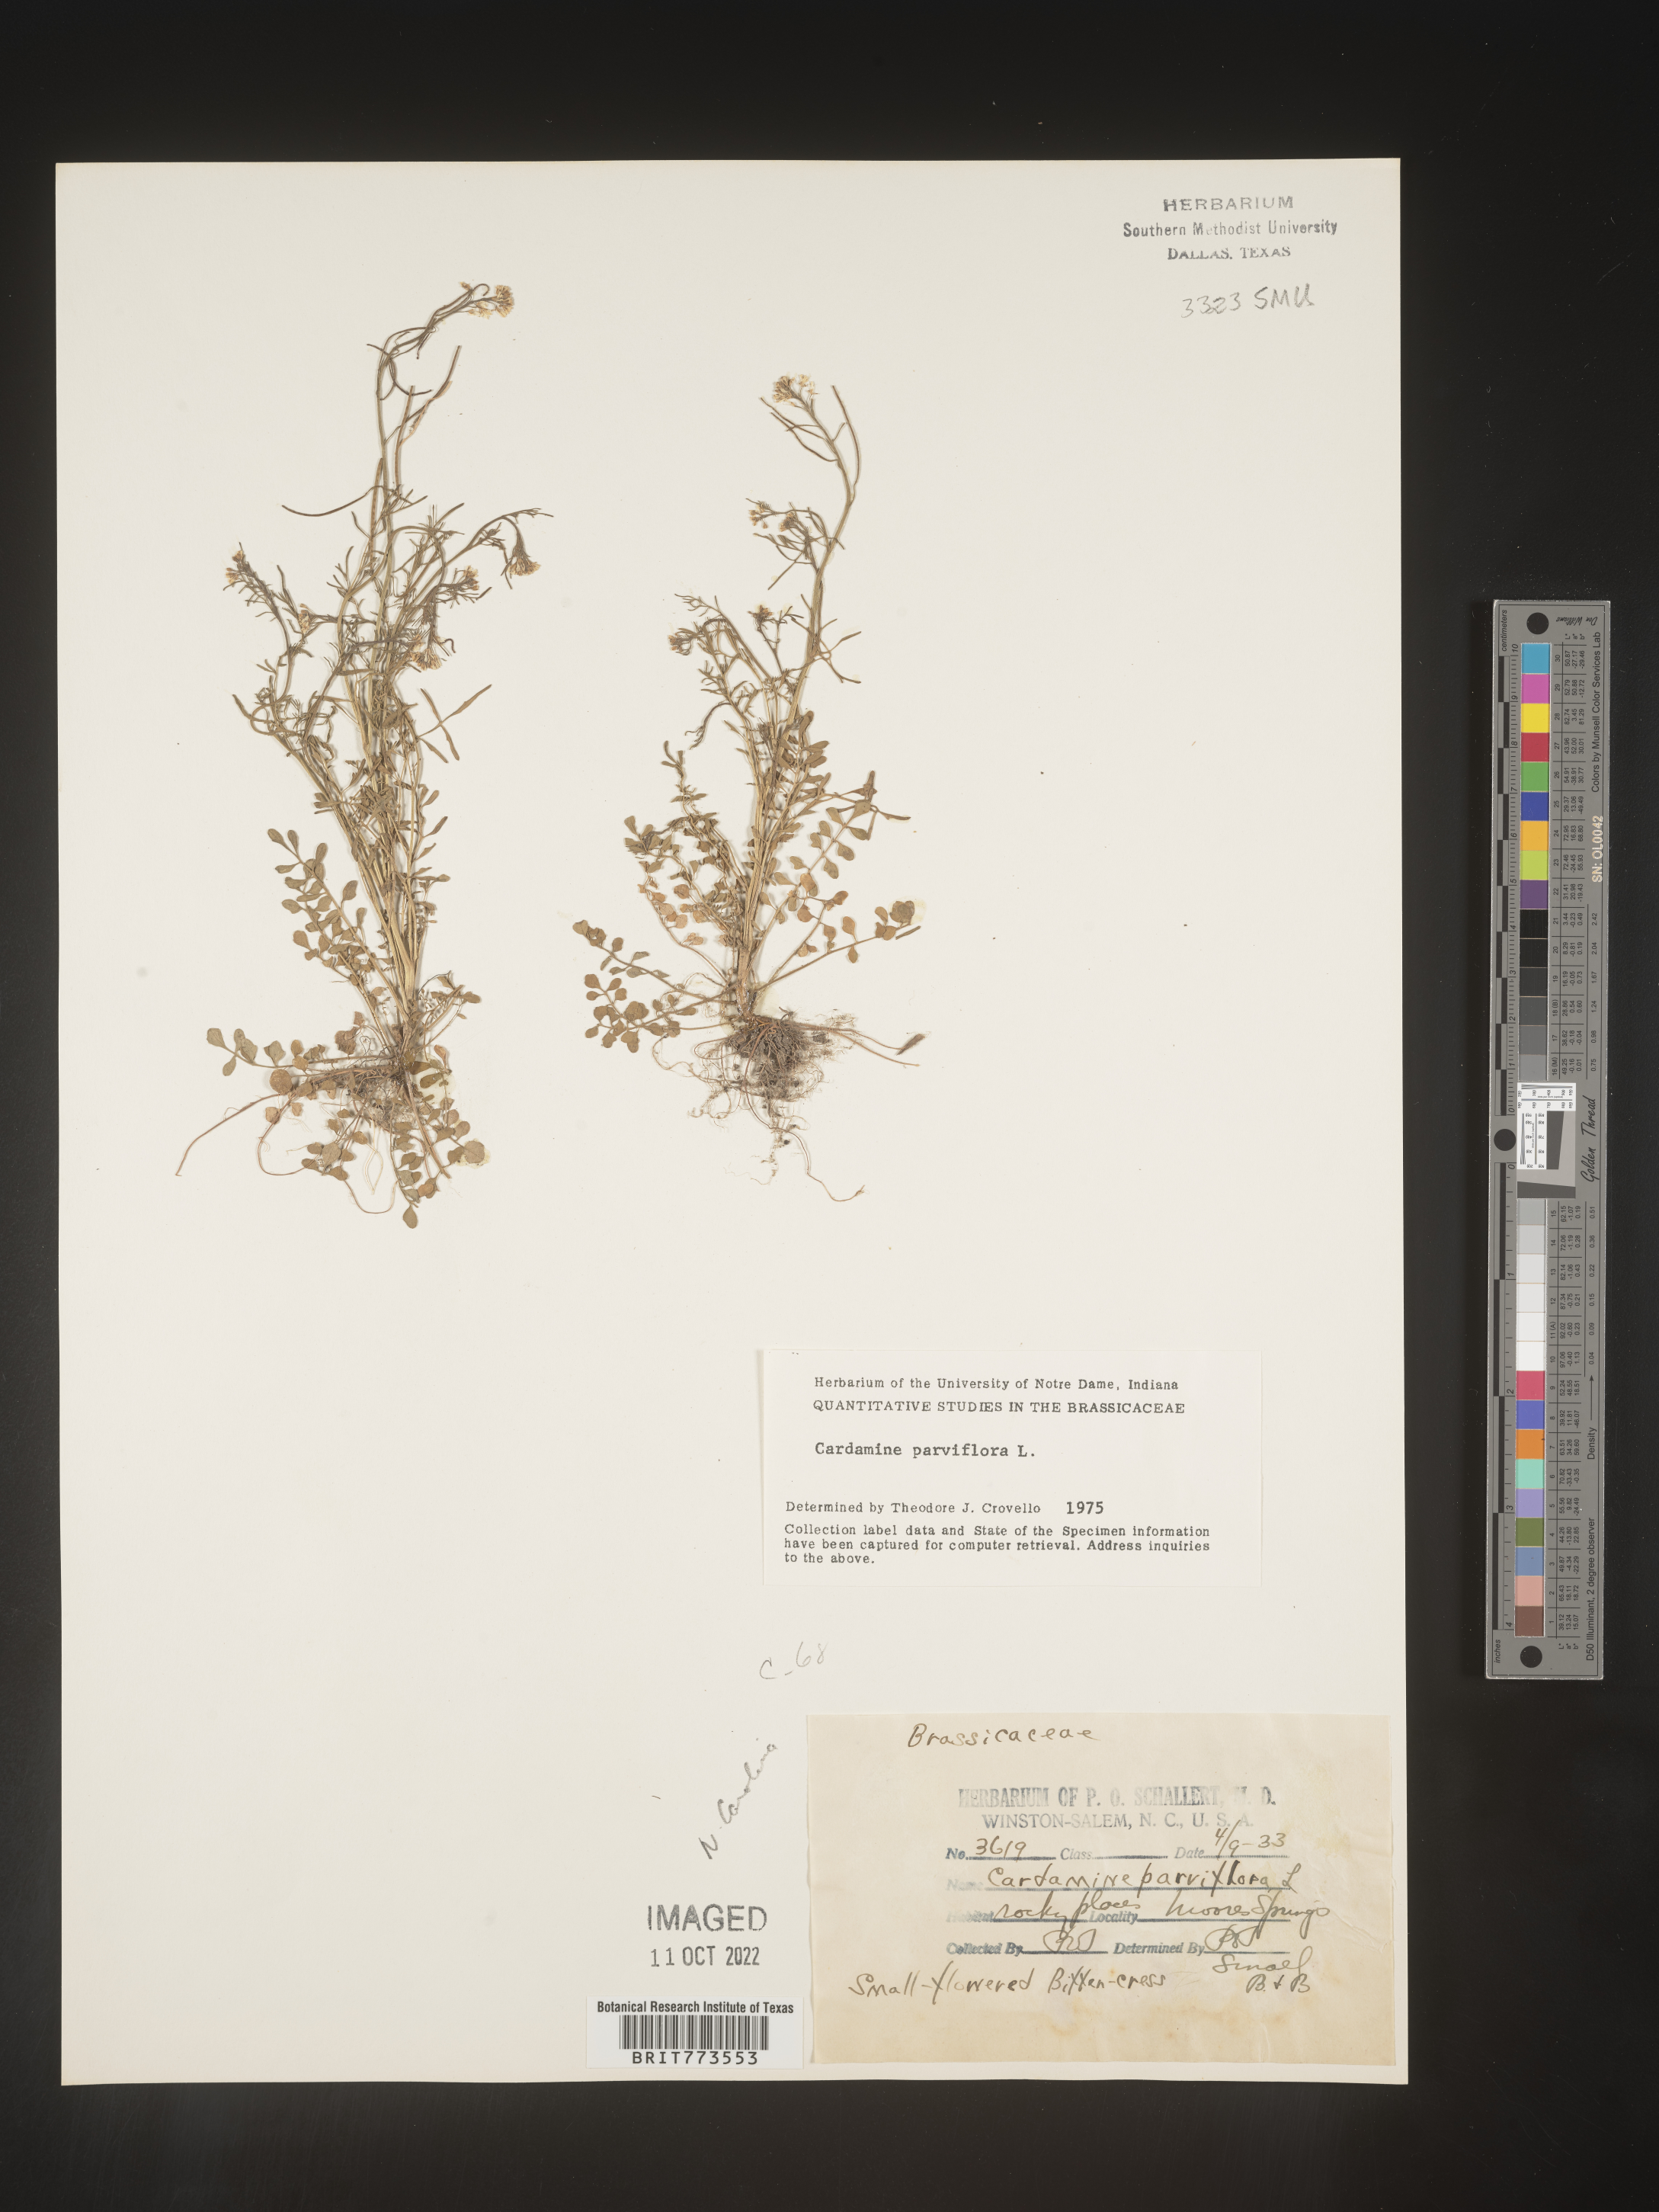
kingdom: Plantae
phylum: Tracheophyta
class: Magnoliopsida
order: Brassicales
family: Brassicaceae
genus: Cardamine
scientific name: Cardamine parviflora
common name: Sand bittercress
